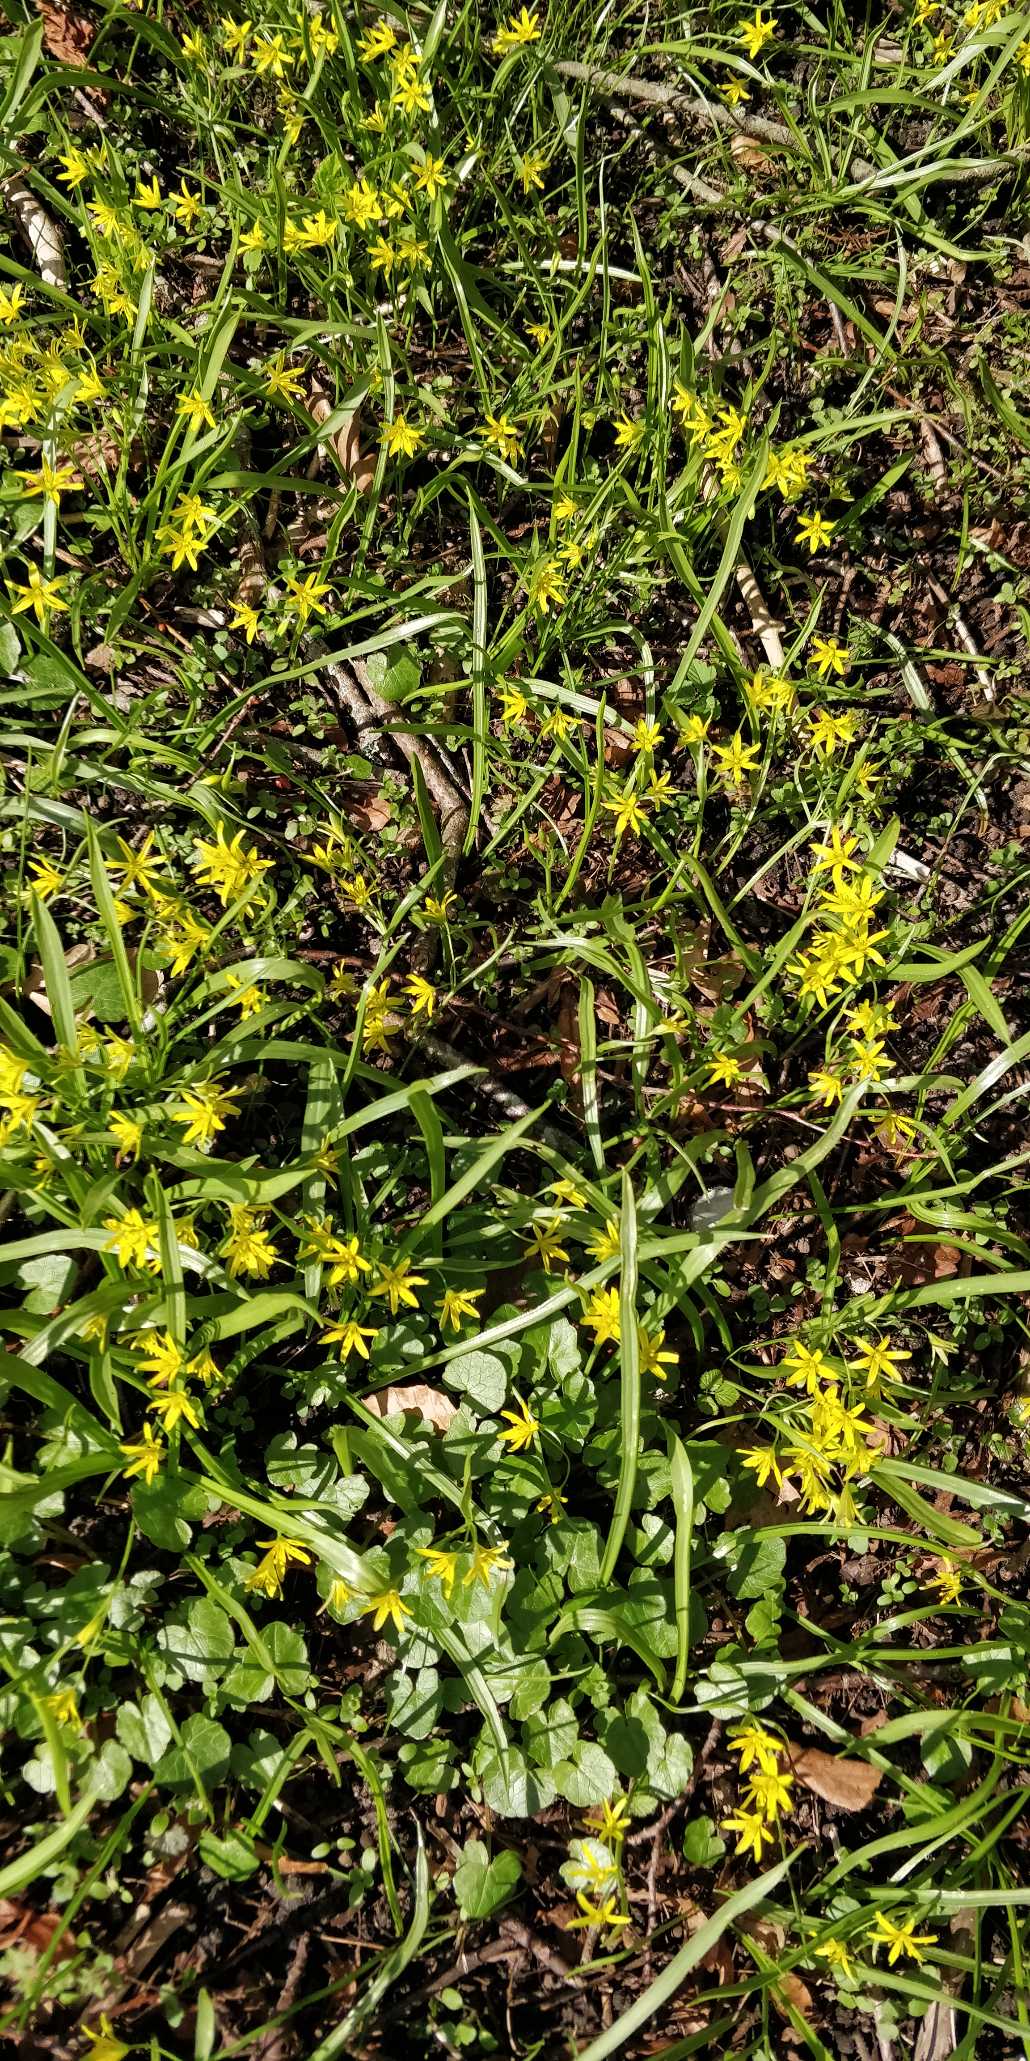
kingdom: Plantae
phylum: Tracheophyta
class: Liliopsida
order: Liliales
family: Liliaceae
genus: Gagea
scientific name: Gagea lutea
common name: Almindelig guldstjerne
